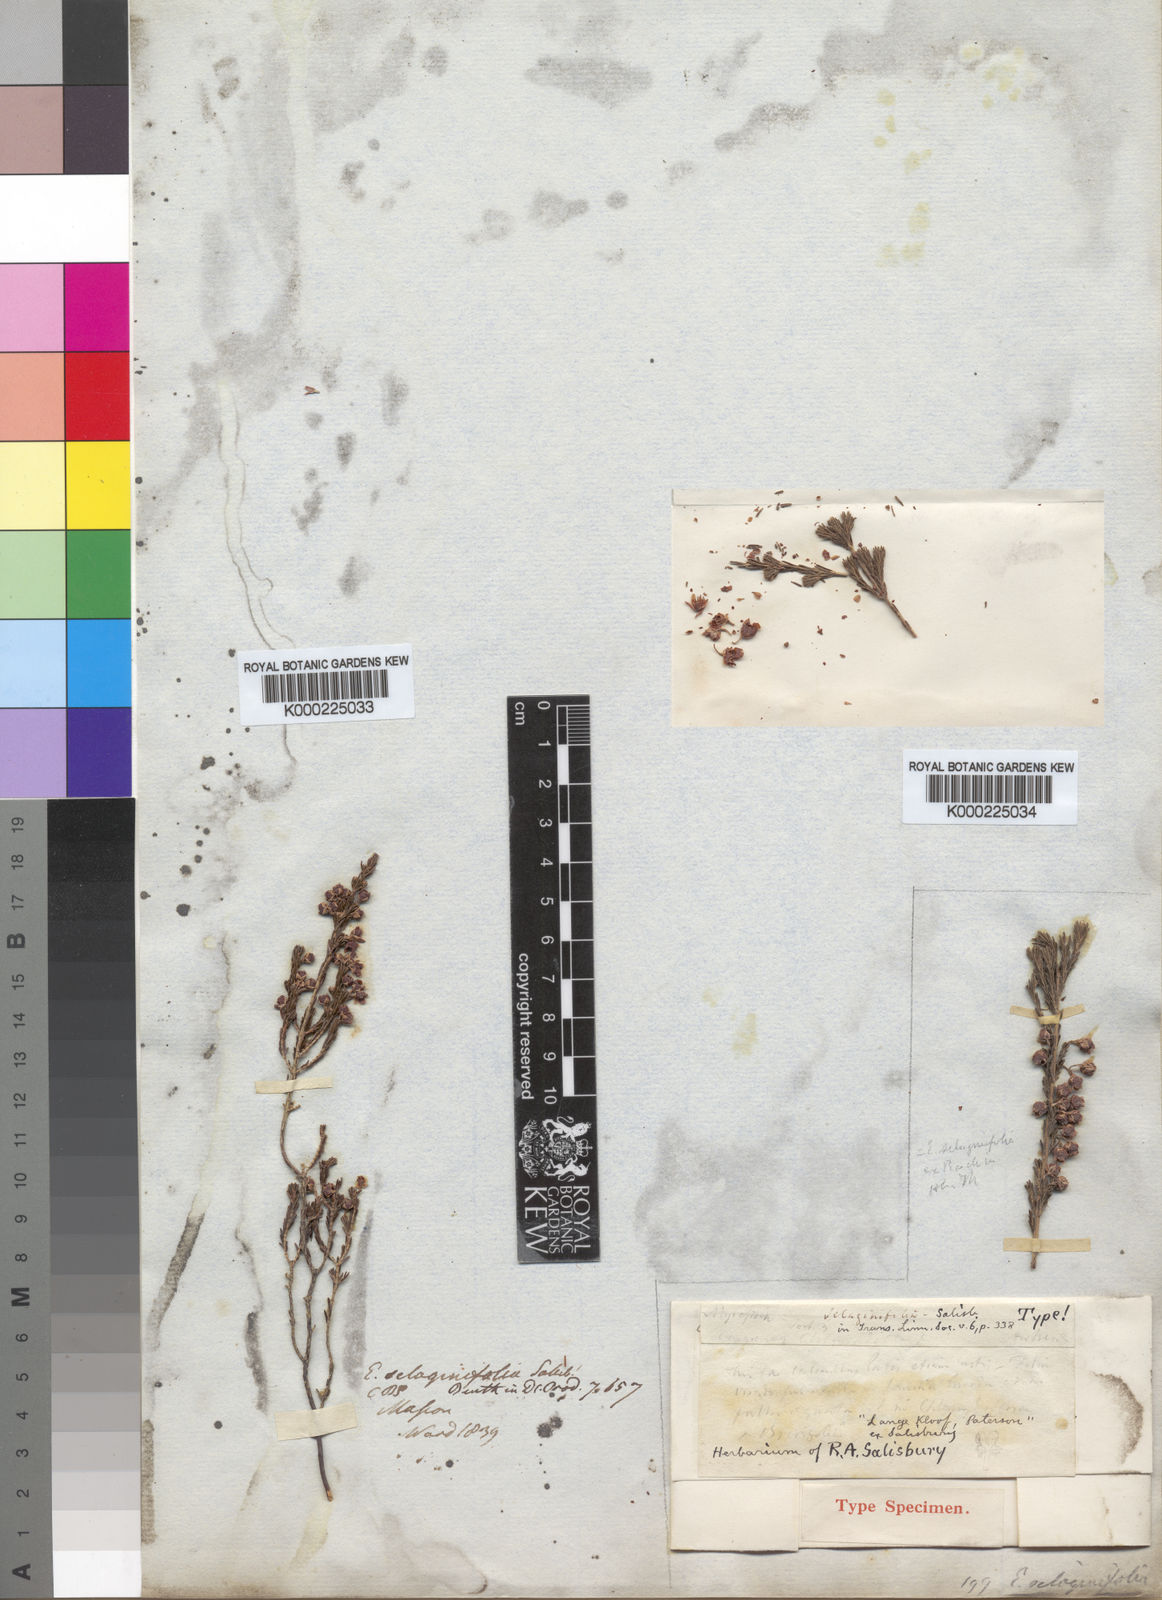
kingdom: Plantae
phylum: Tracheophyta
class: Magnoliopsida
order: Ericales
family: Ericaceae
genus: Erica
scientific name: Erica selaginifolia
